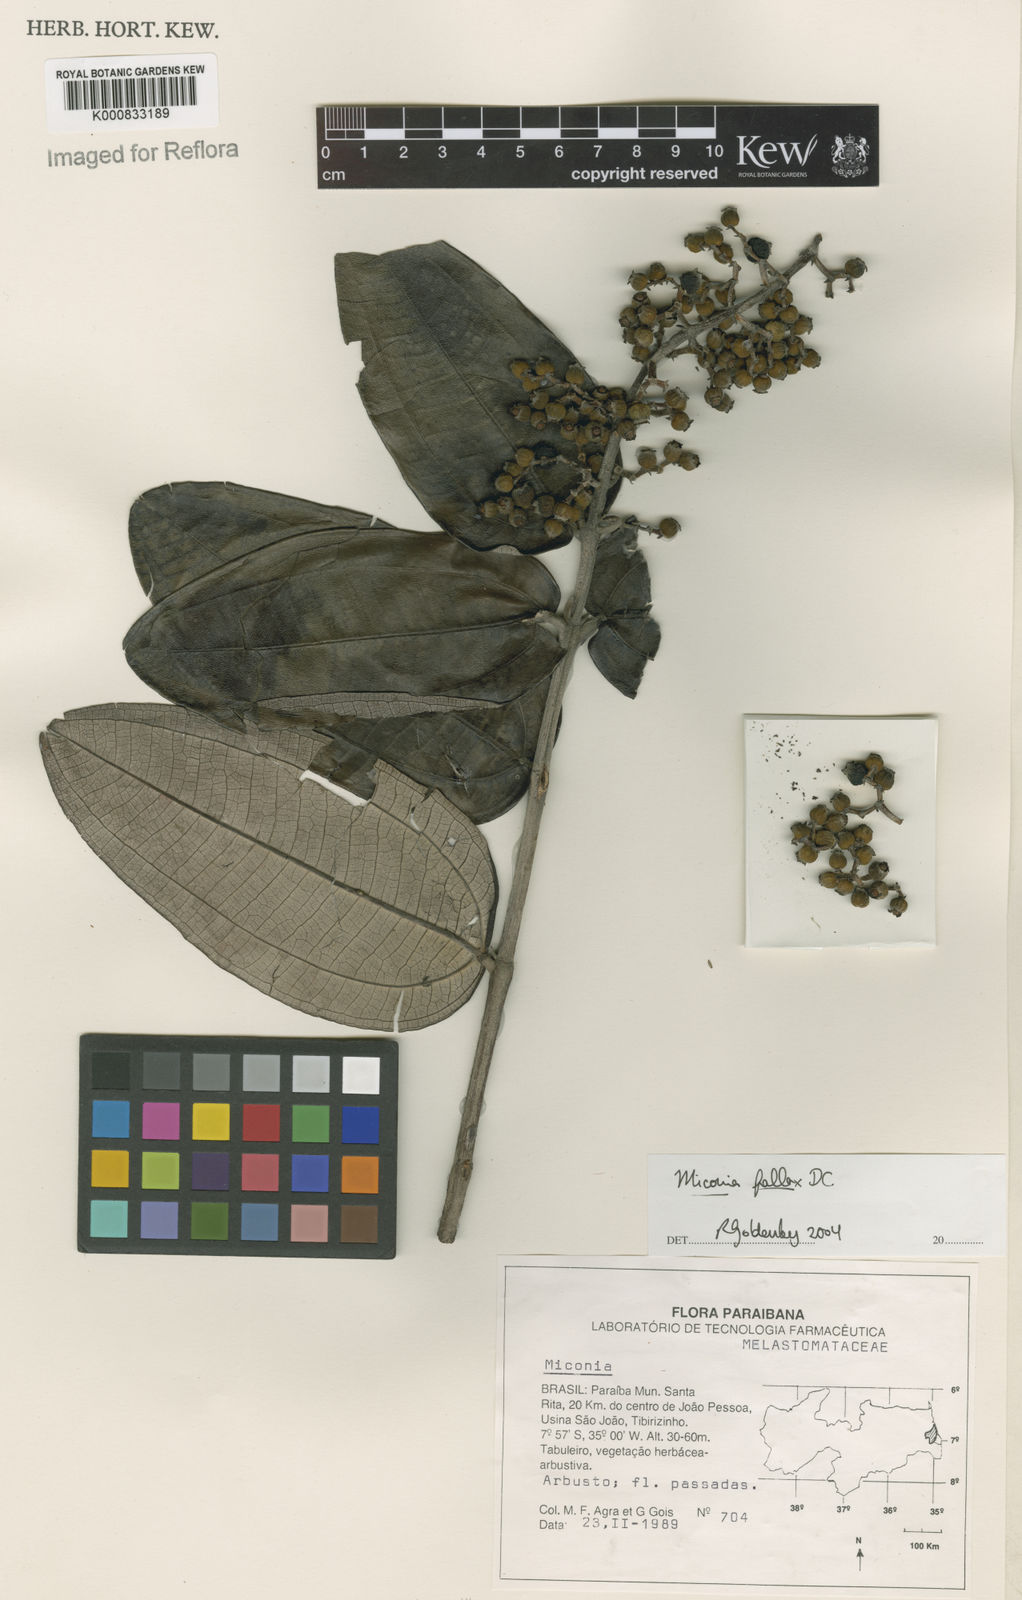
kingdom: Plantae
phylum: Tracheophyta
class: Magnoliopsida
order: Myrtales
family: Melastomataceae
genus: Miconia
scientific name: Miconia fallax
